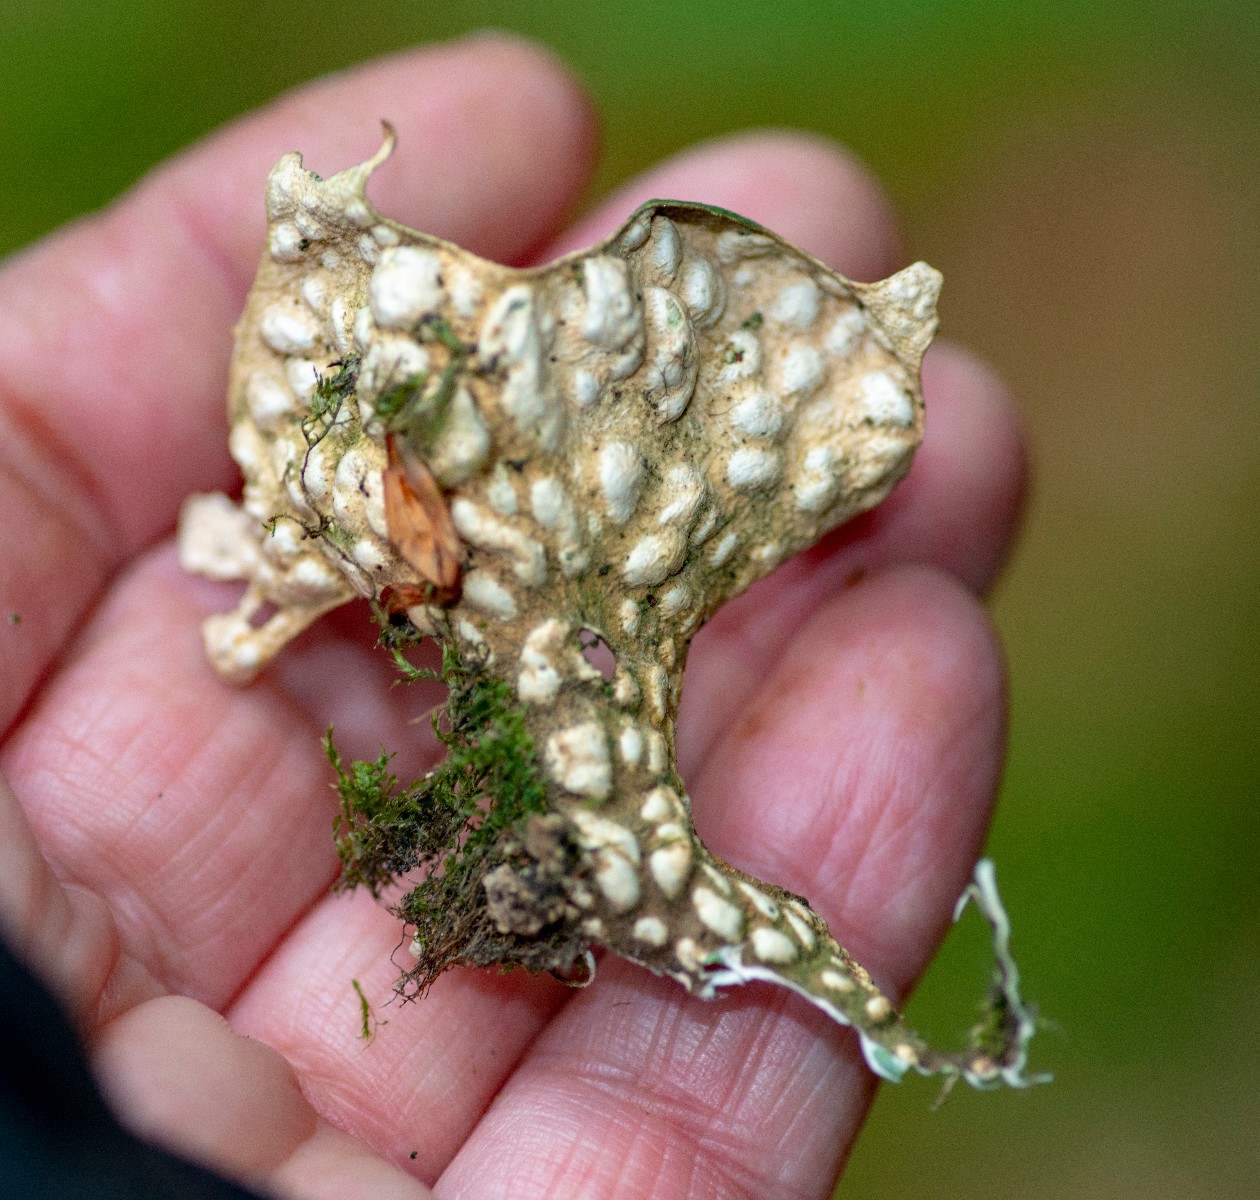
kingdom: Fungi
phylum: Ascomycota
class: Lecanoromycetes
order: Peltigerales
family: Lobariaceae
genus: Lobaria
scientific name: Lobaria pulmonaria
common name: almindelig lungelav
